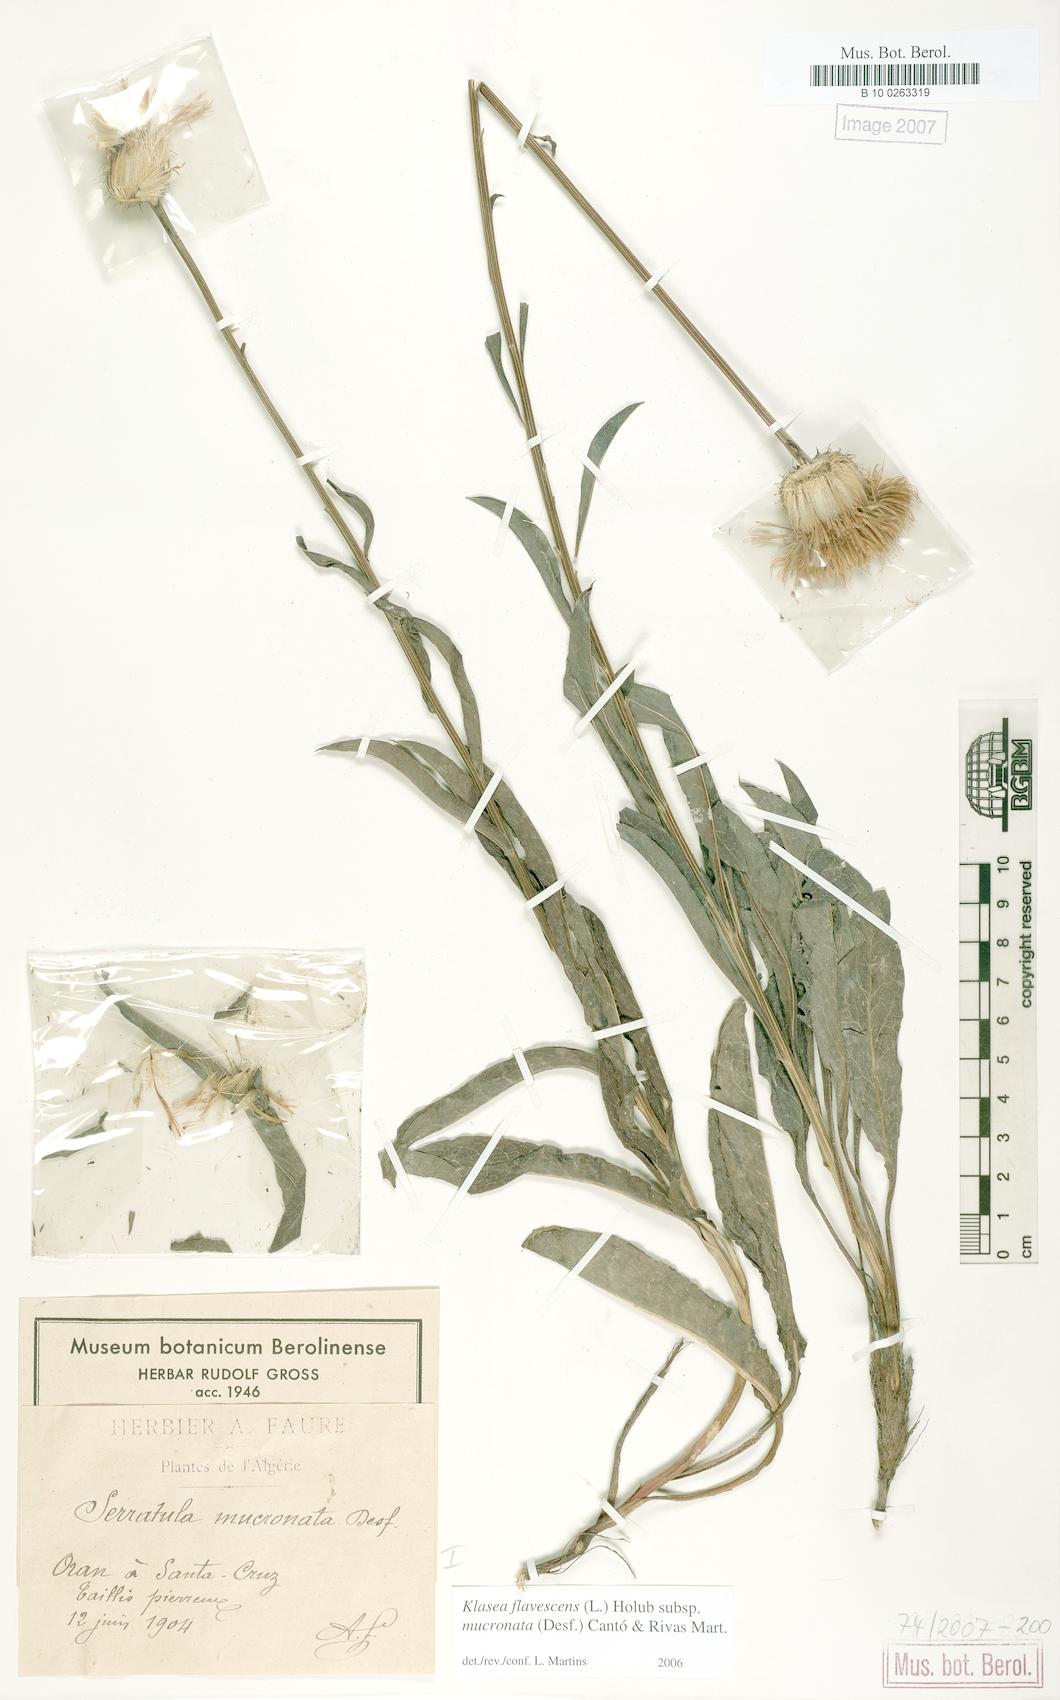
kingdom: Plantae
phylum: Tracheophyta
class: Magnoliopsida
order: Asterales
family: Asteraceae
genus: Klasea
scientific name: Klasea flavescens
